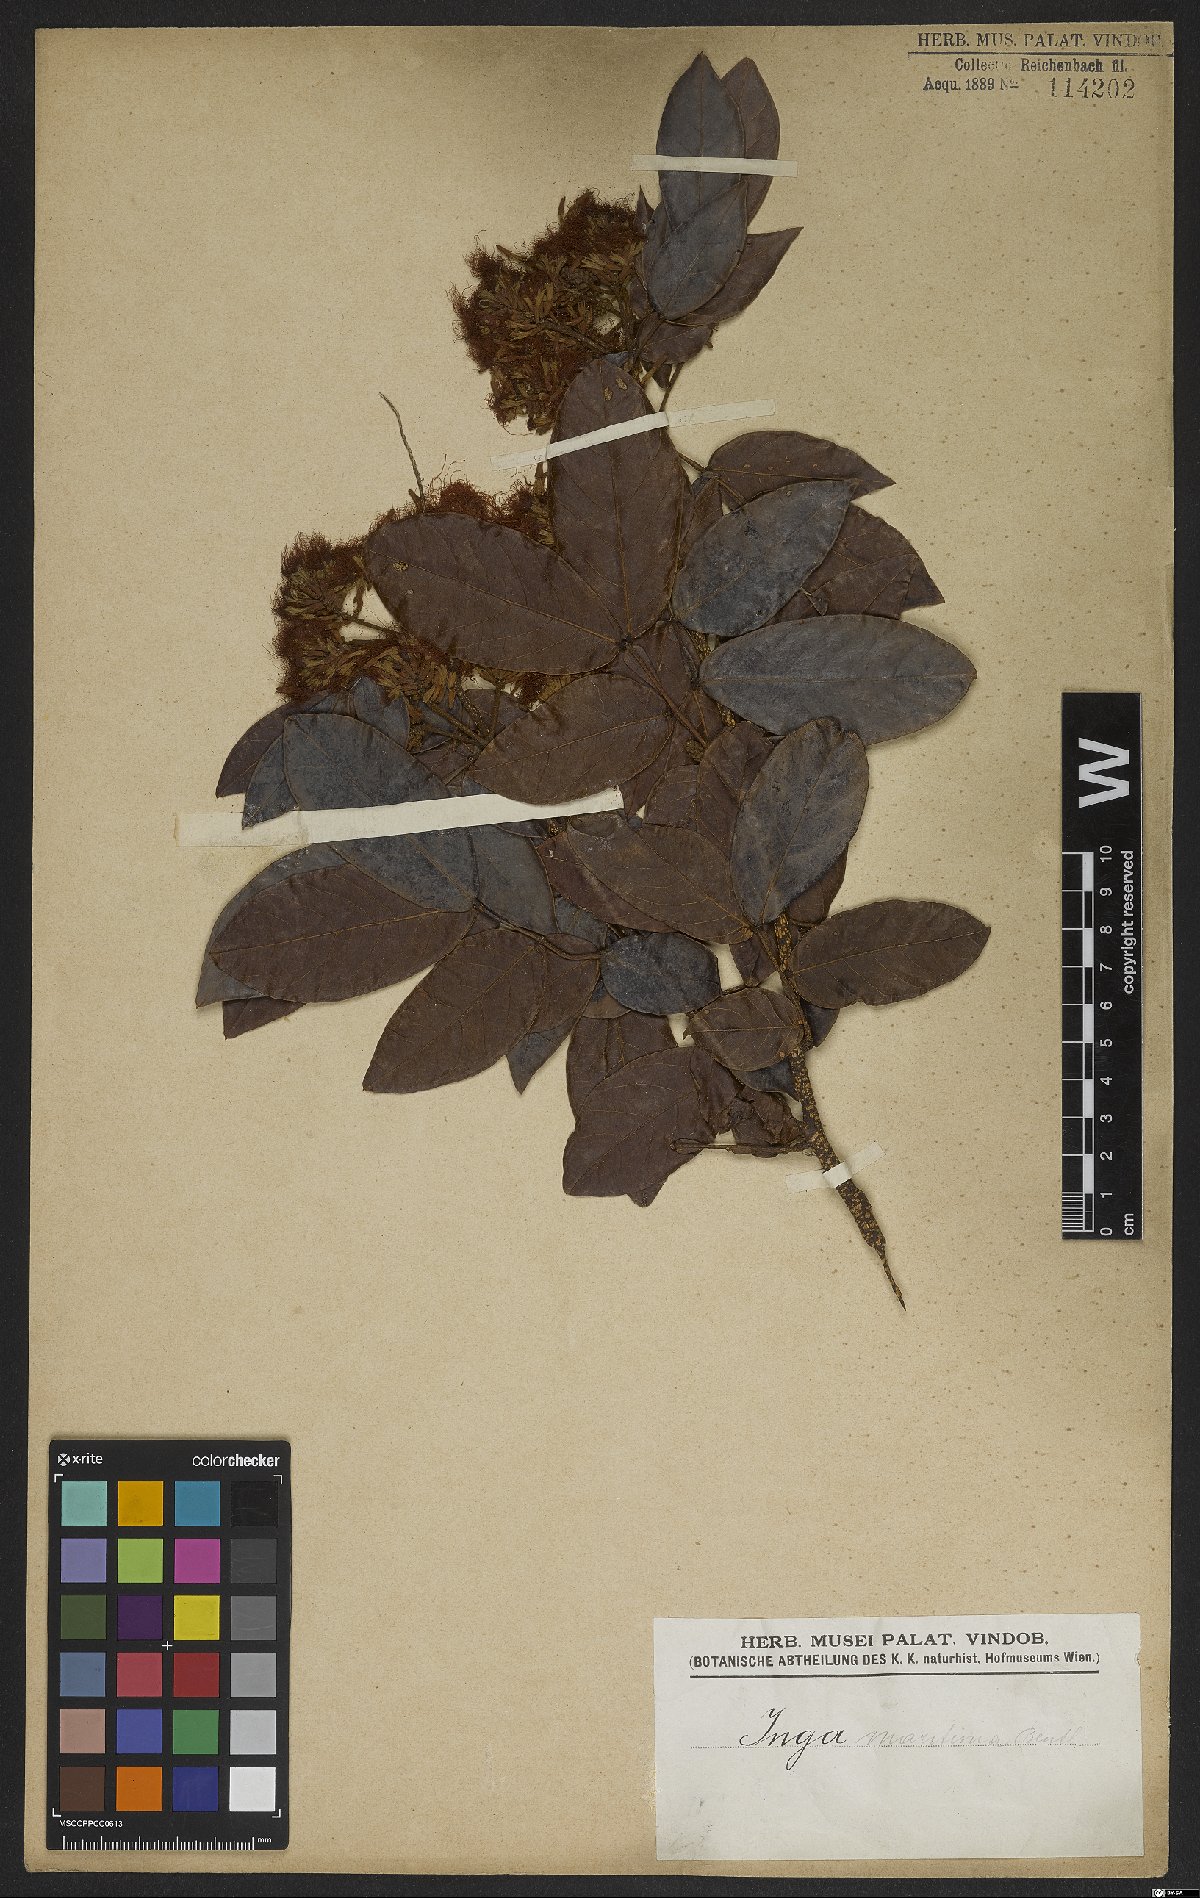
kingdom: Plantae
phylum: Tracheophyta
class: Magnoliopsida
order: Fabales
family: Fabaceae
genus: Inga
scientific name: Inga marginata
